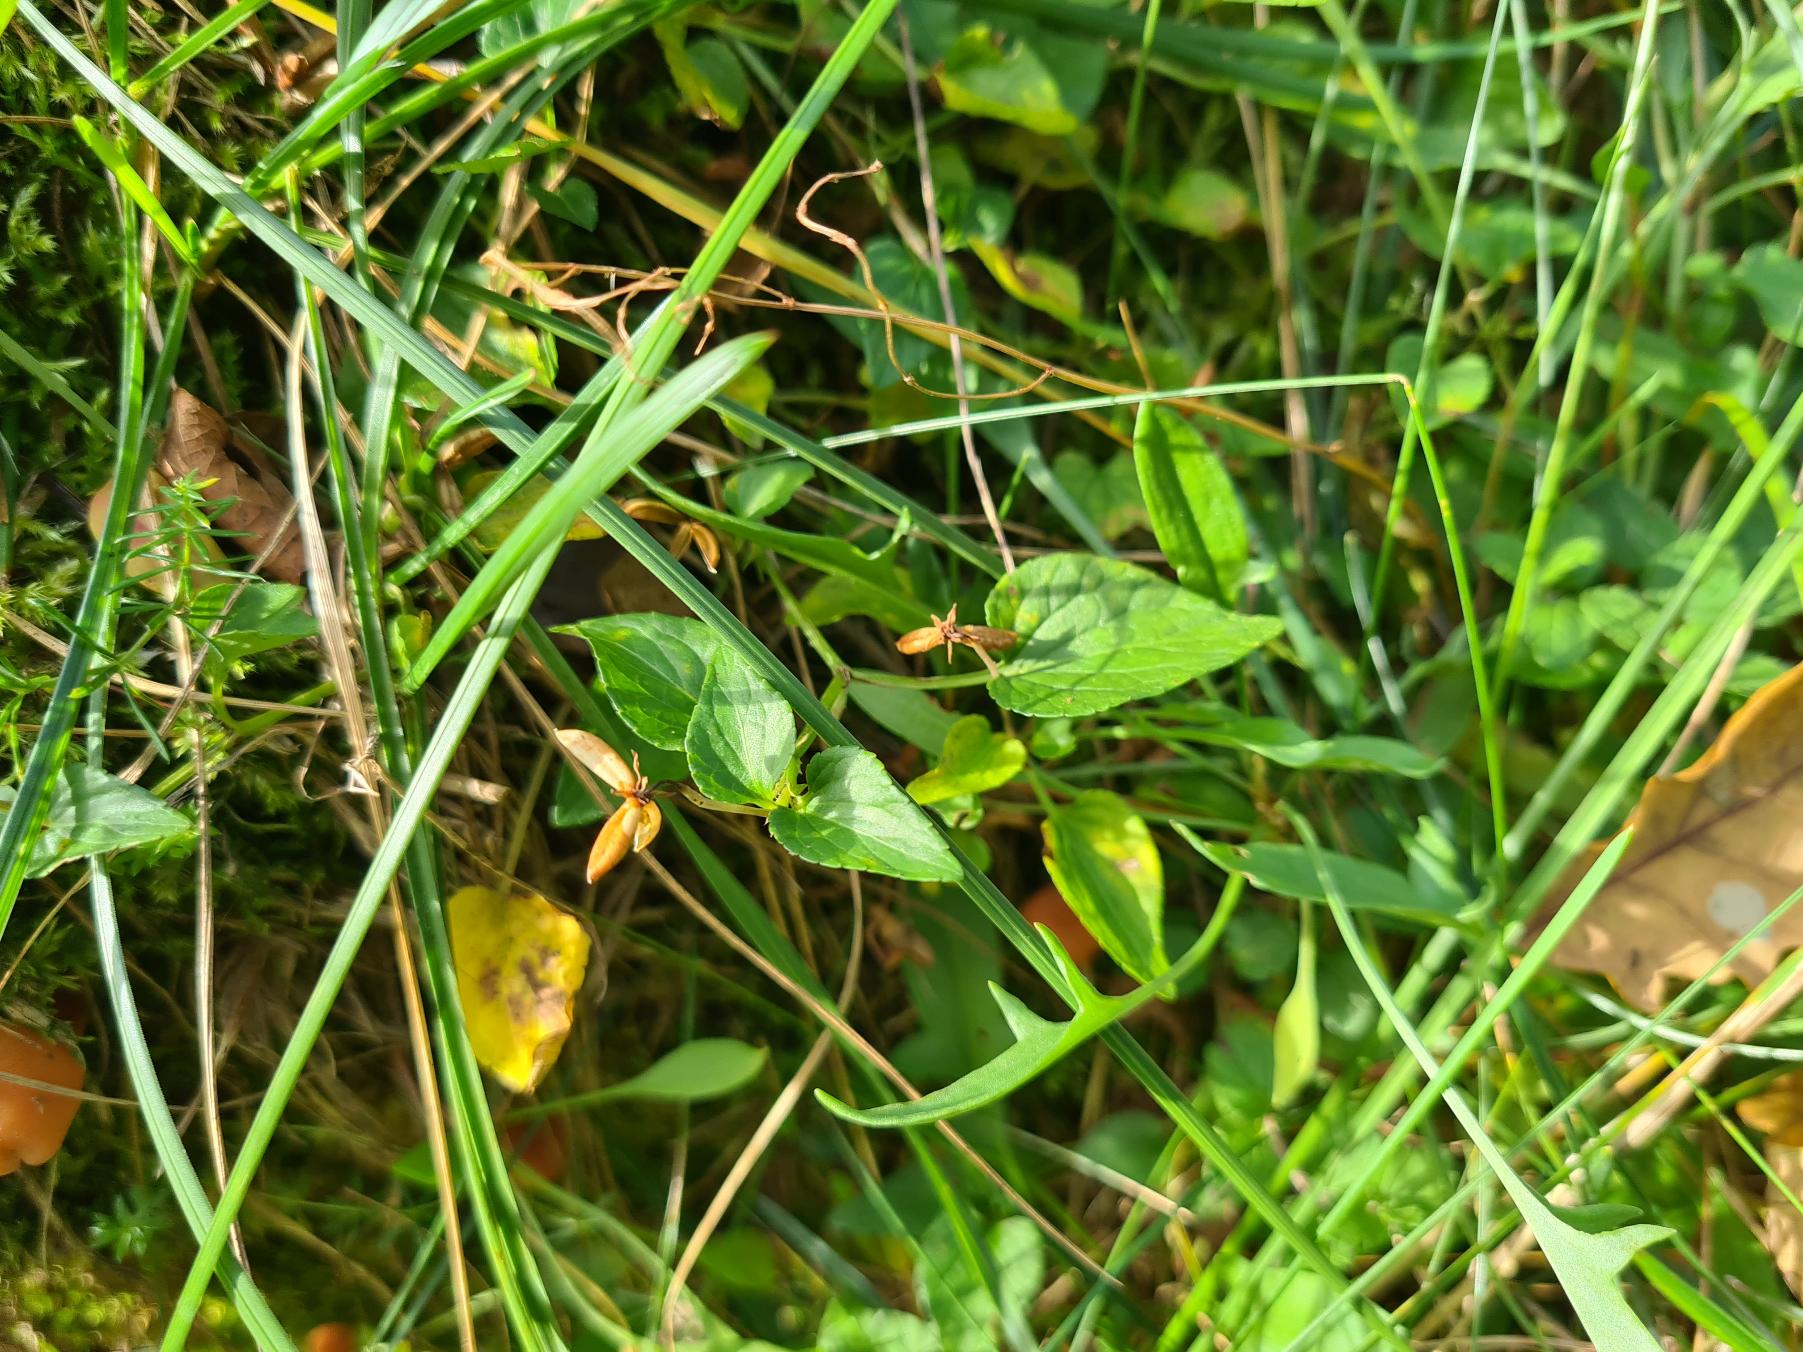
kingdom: Plantae
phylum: Tracheophyta
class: Magnoliopsida
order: Malpighiales
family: Violaceae
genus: Viola
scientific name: Viola canina
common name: Hunde-viol
